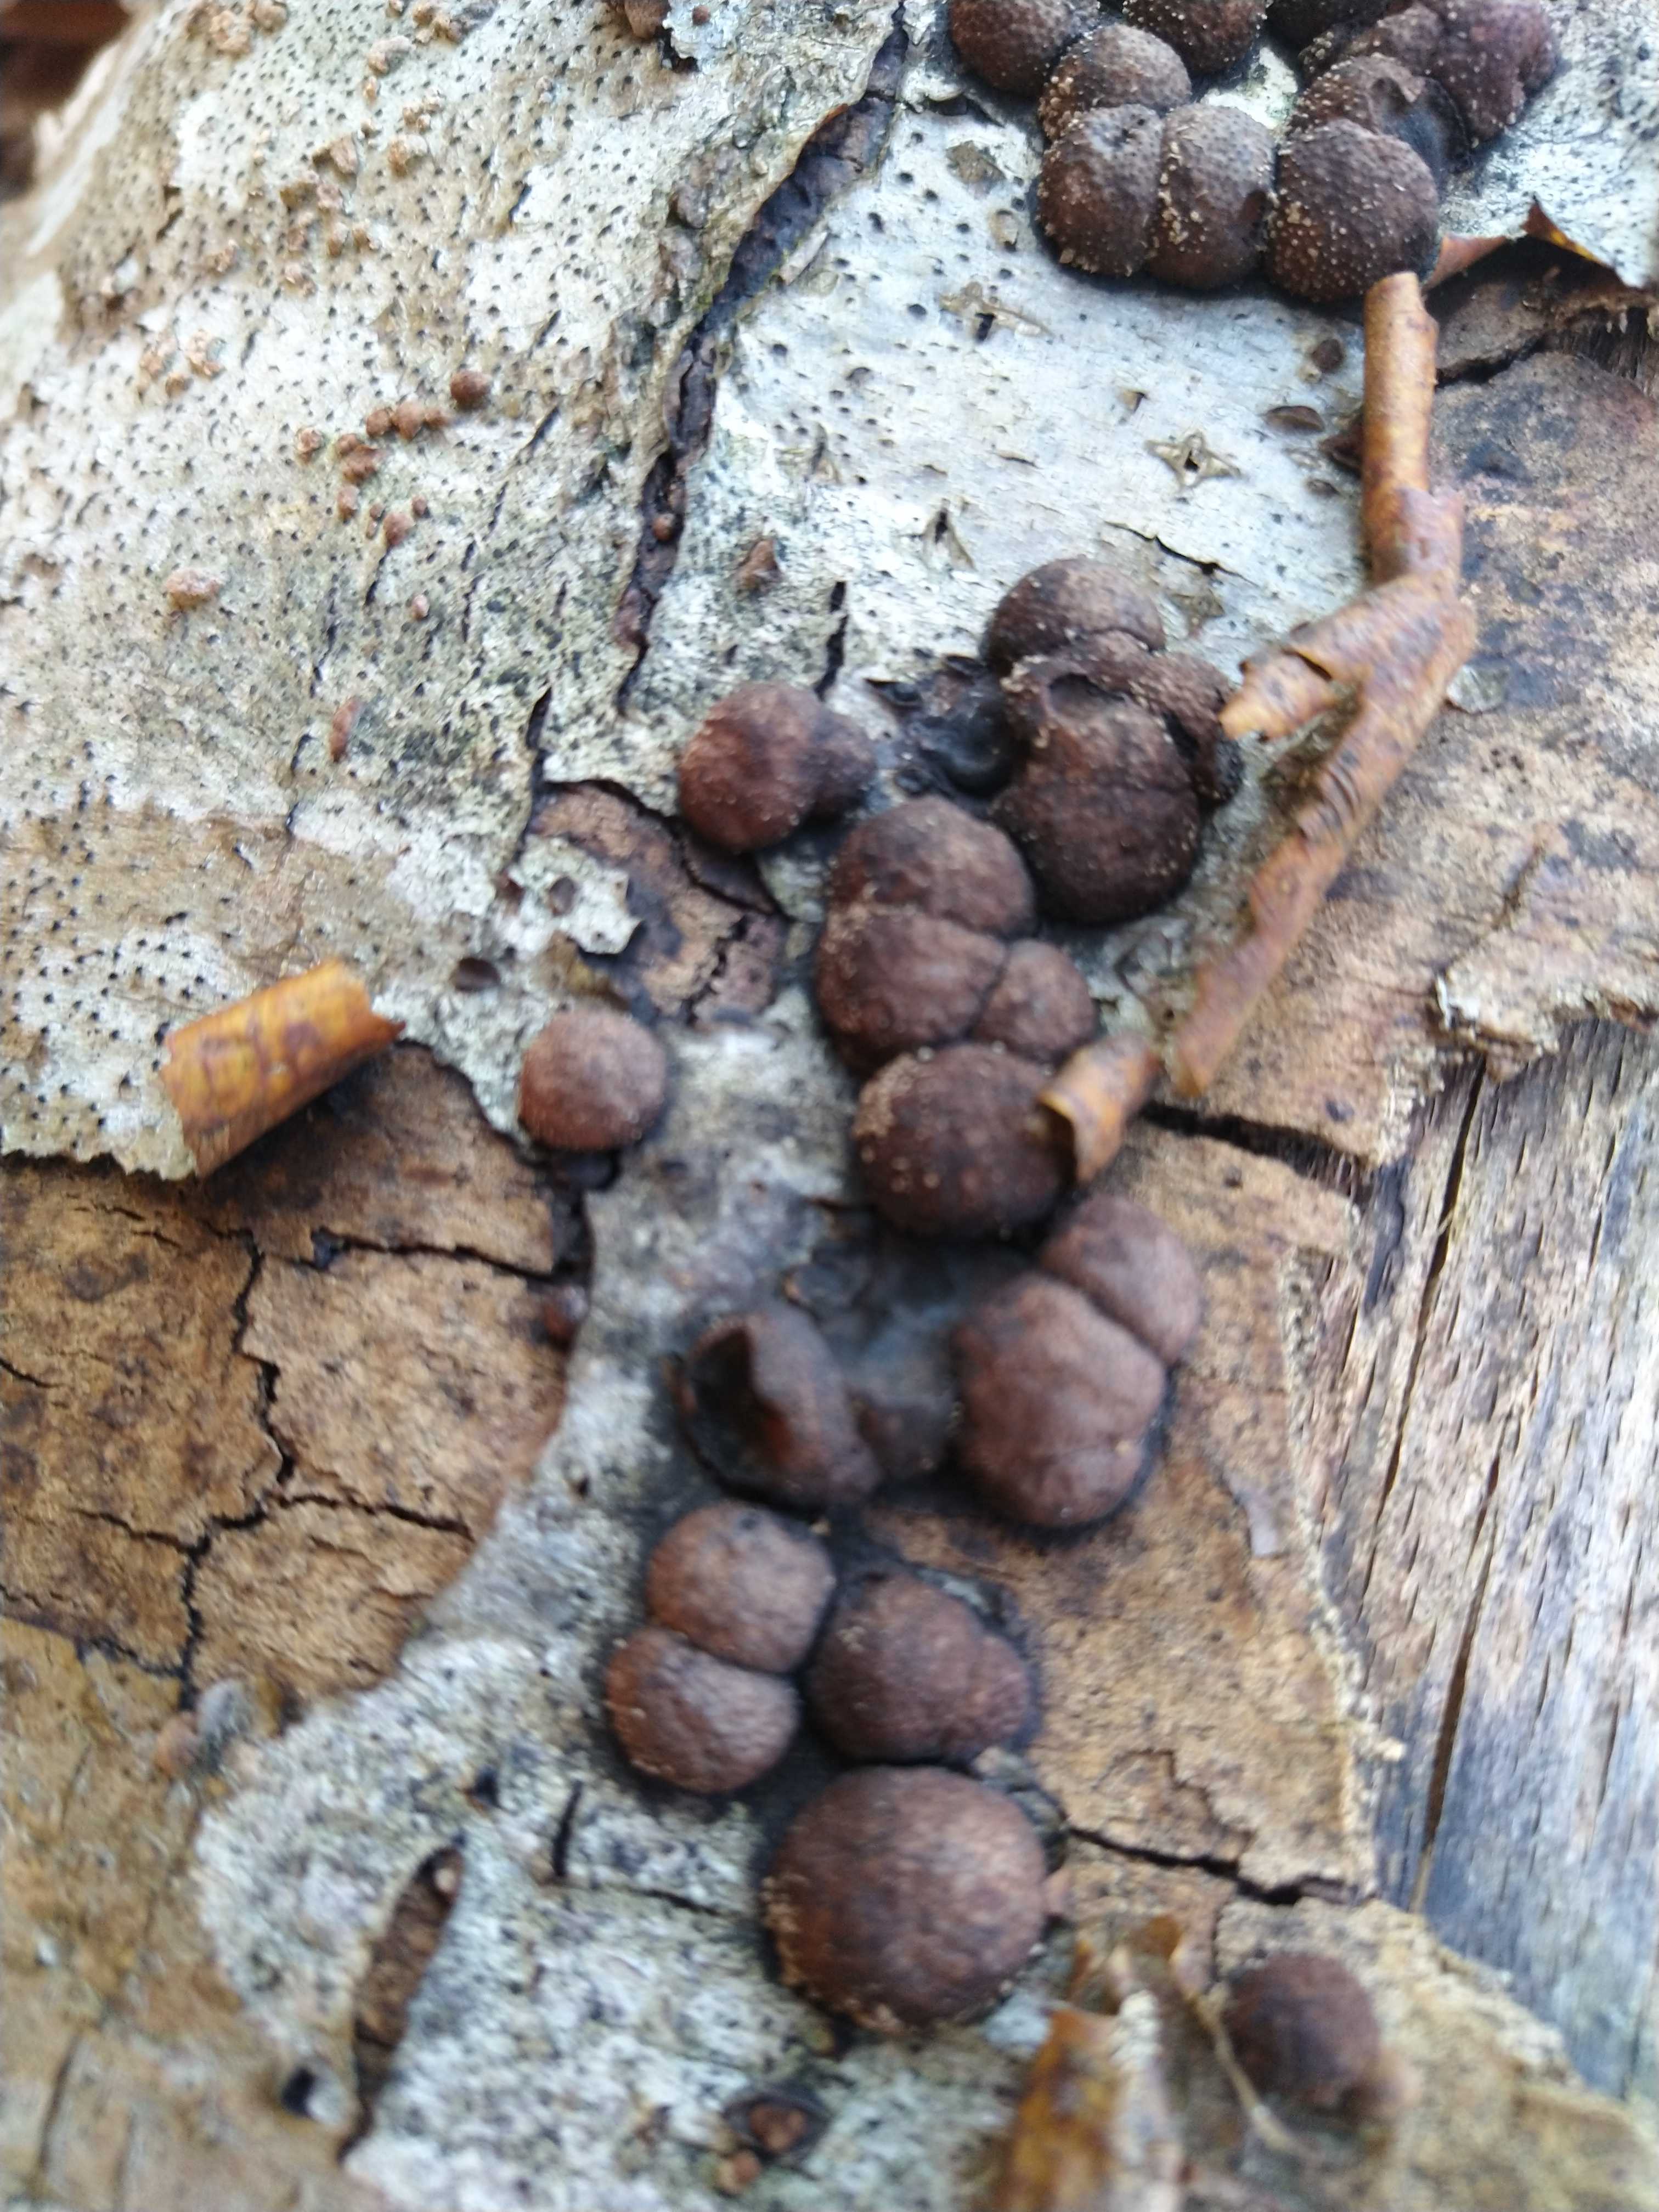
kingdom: Fungi
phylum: Ascomycota
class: Sordariomycetes
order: Xylariales
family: Hypoxylaceae
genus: Hypoxylon
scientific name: Hypoxylon fragiforme
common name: kuljordbær
